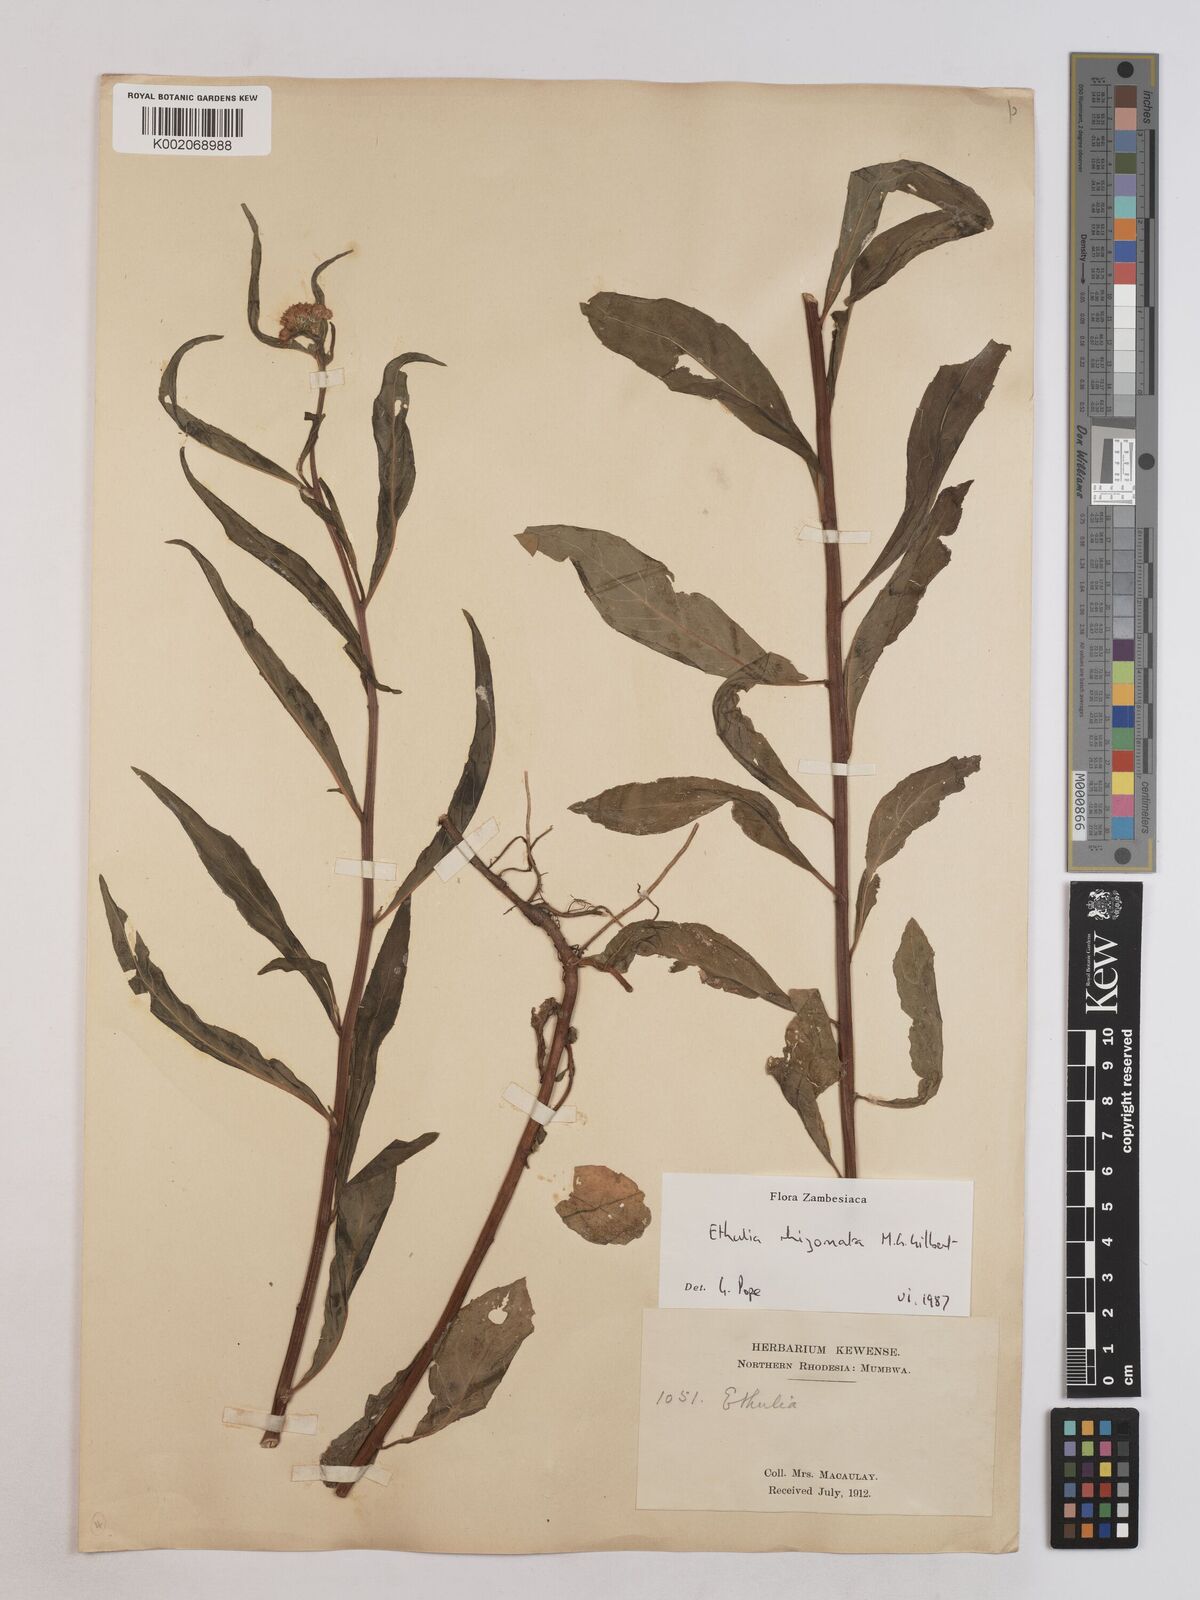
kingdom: Plantae
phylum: Tracheophyta
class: Magnoliopsida
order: Asterales
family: Asteraceae
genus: Ethulia
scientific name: Ethulia rhizomata
